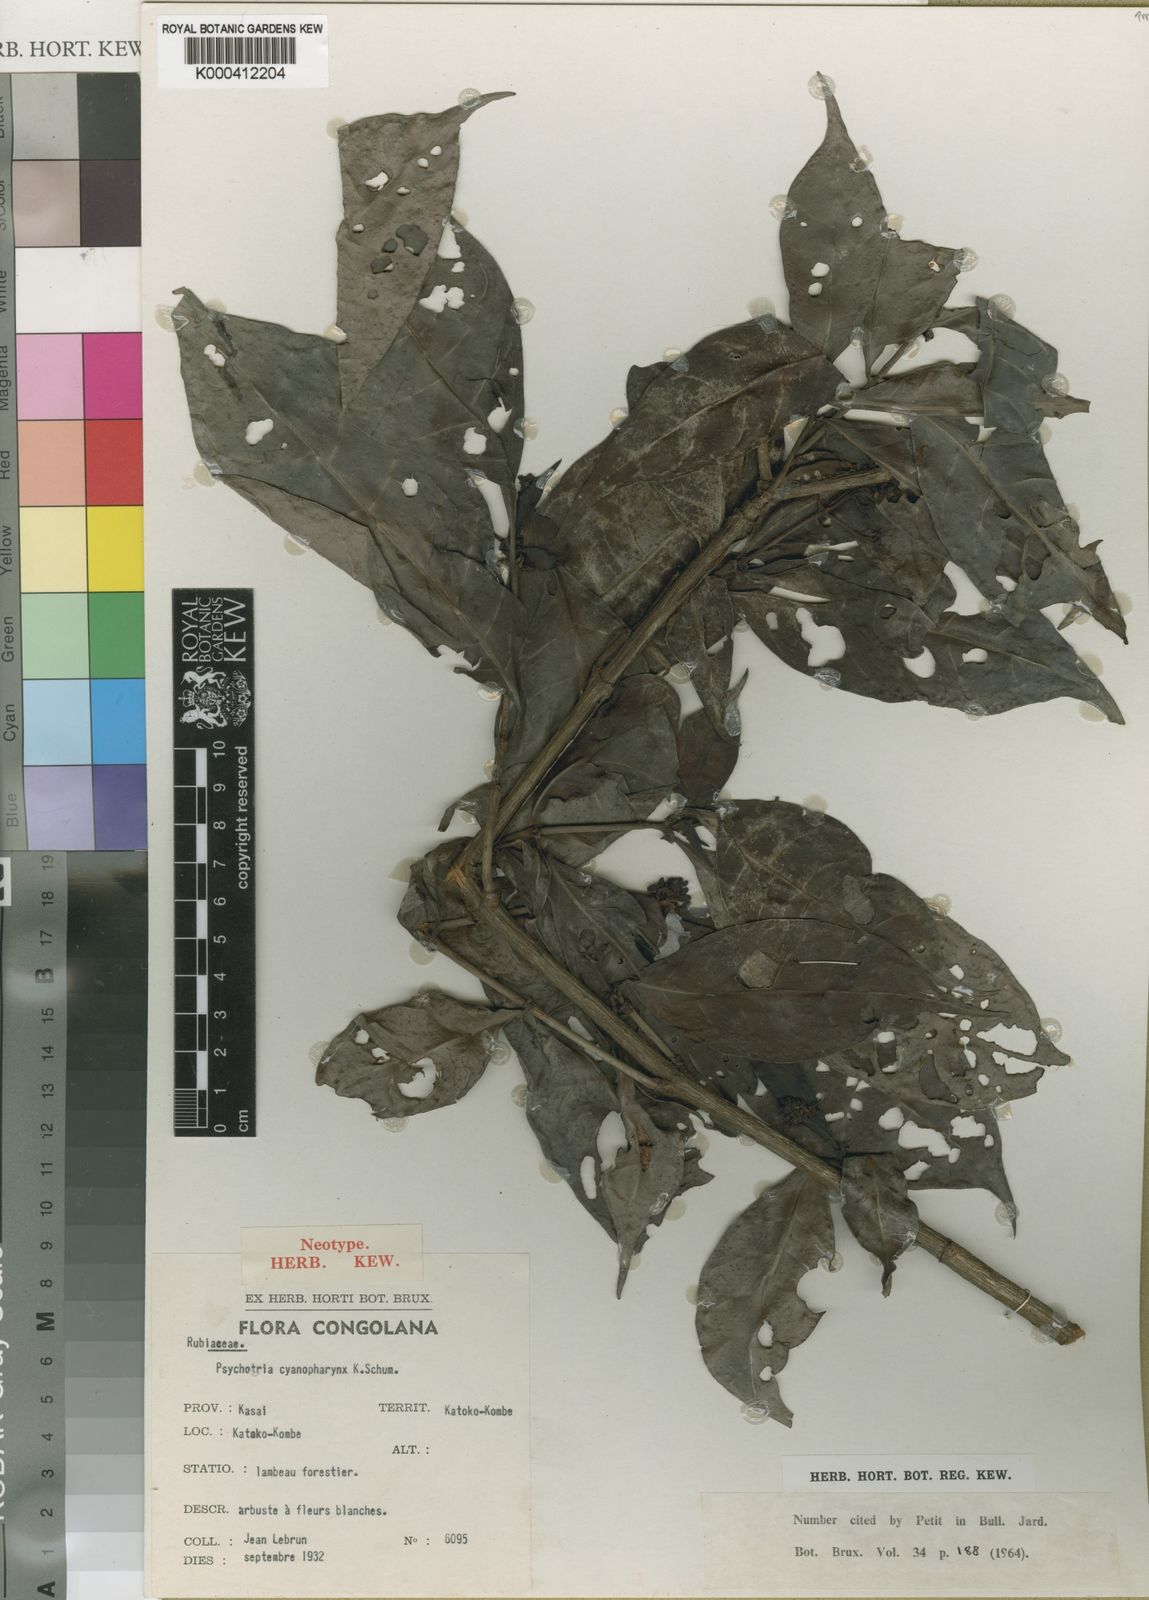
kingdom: Plantae
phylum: Tracheophyta
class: Magnoliopsida
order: Gentianales
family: Rubiaceae
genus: Psychotria
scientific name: Psychotria cyanopharynx
